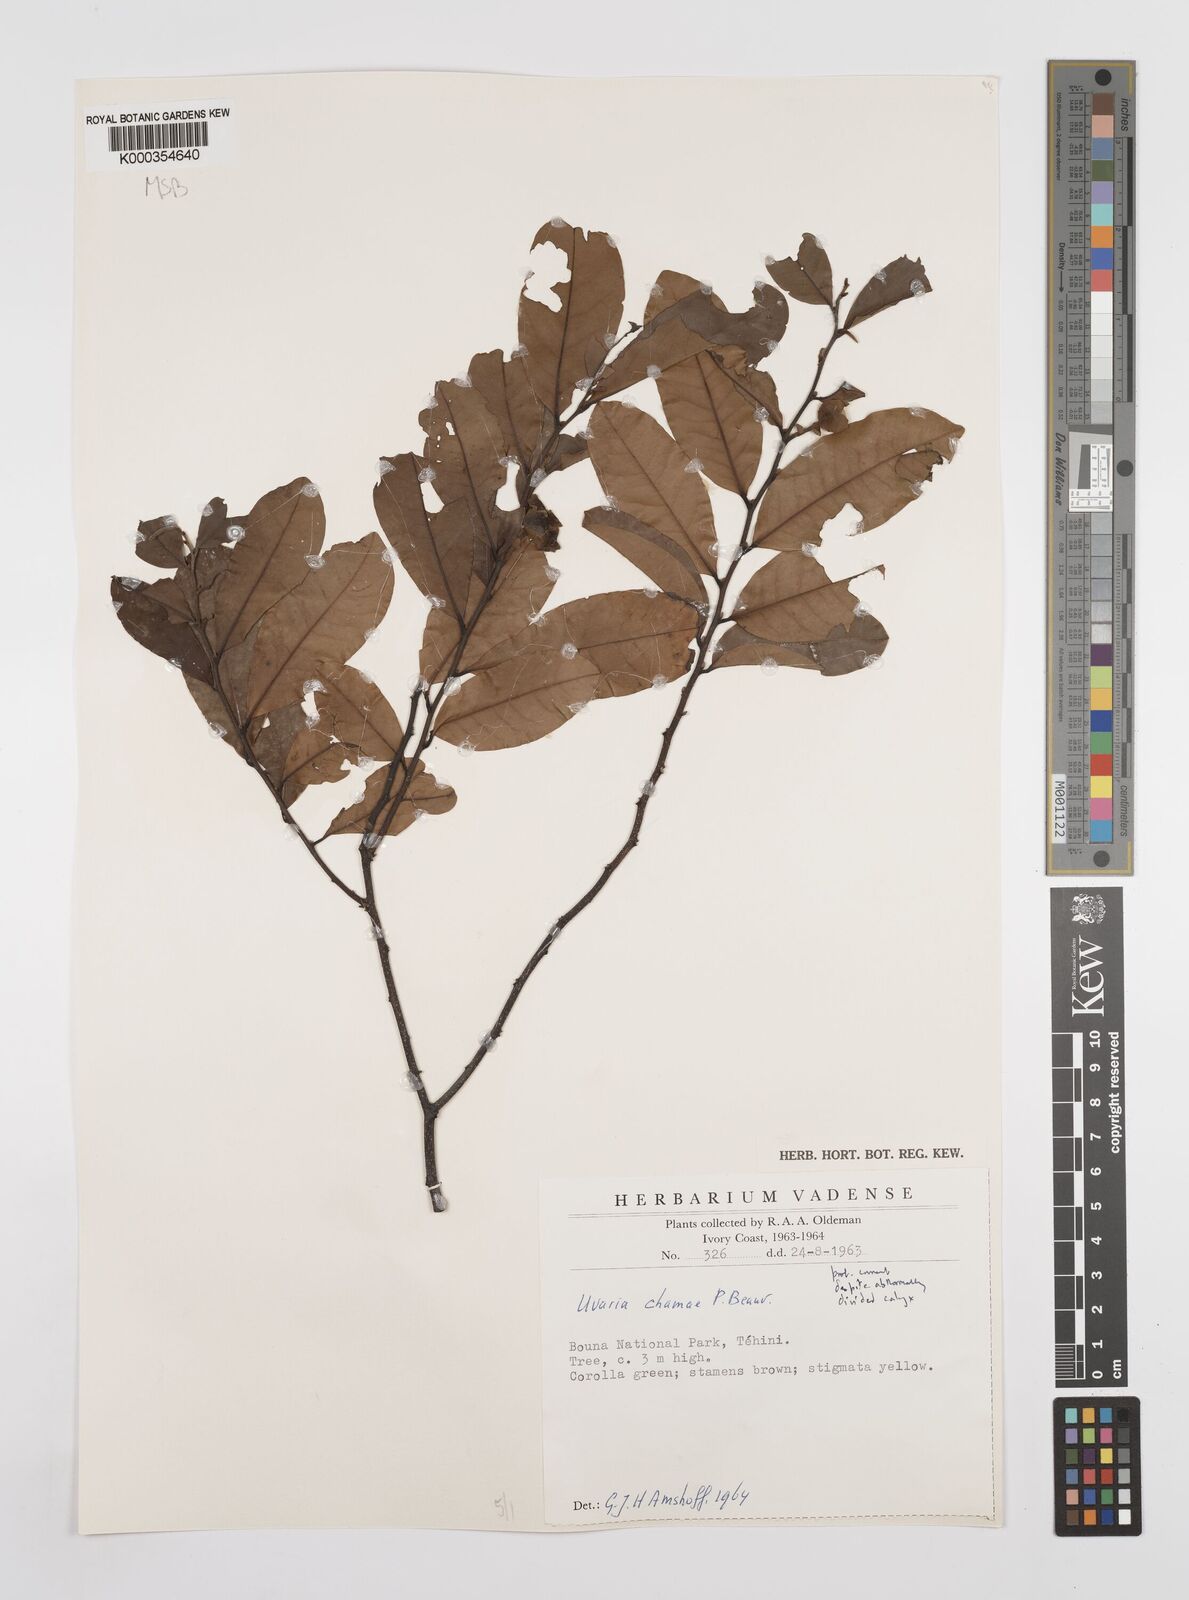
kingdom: Plantae
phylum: Tracheophyta
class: Magnoliopsida
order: Magnoliales
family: Annonaceae
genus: Uvaria
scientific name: Uvaria chamae
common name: Finger-root
